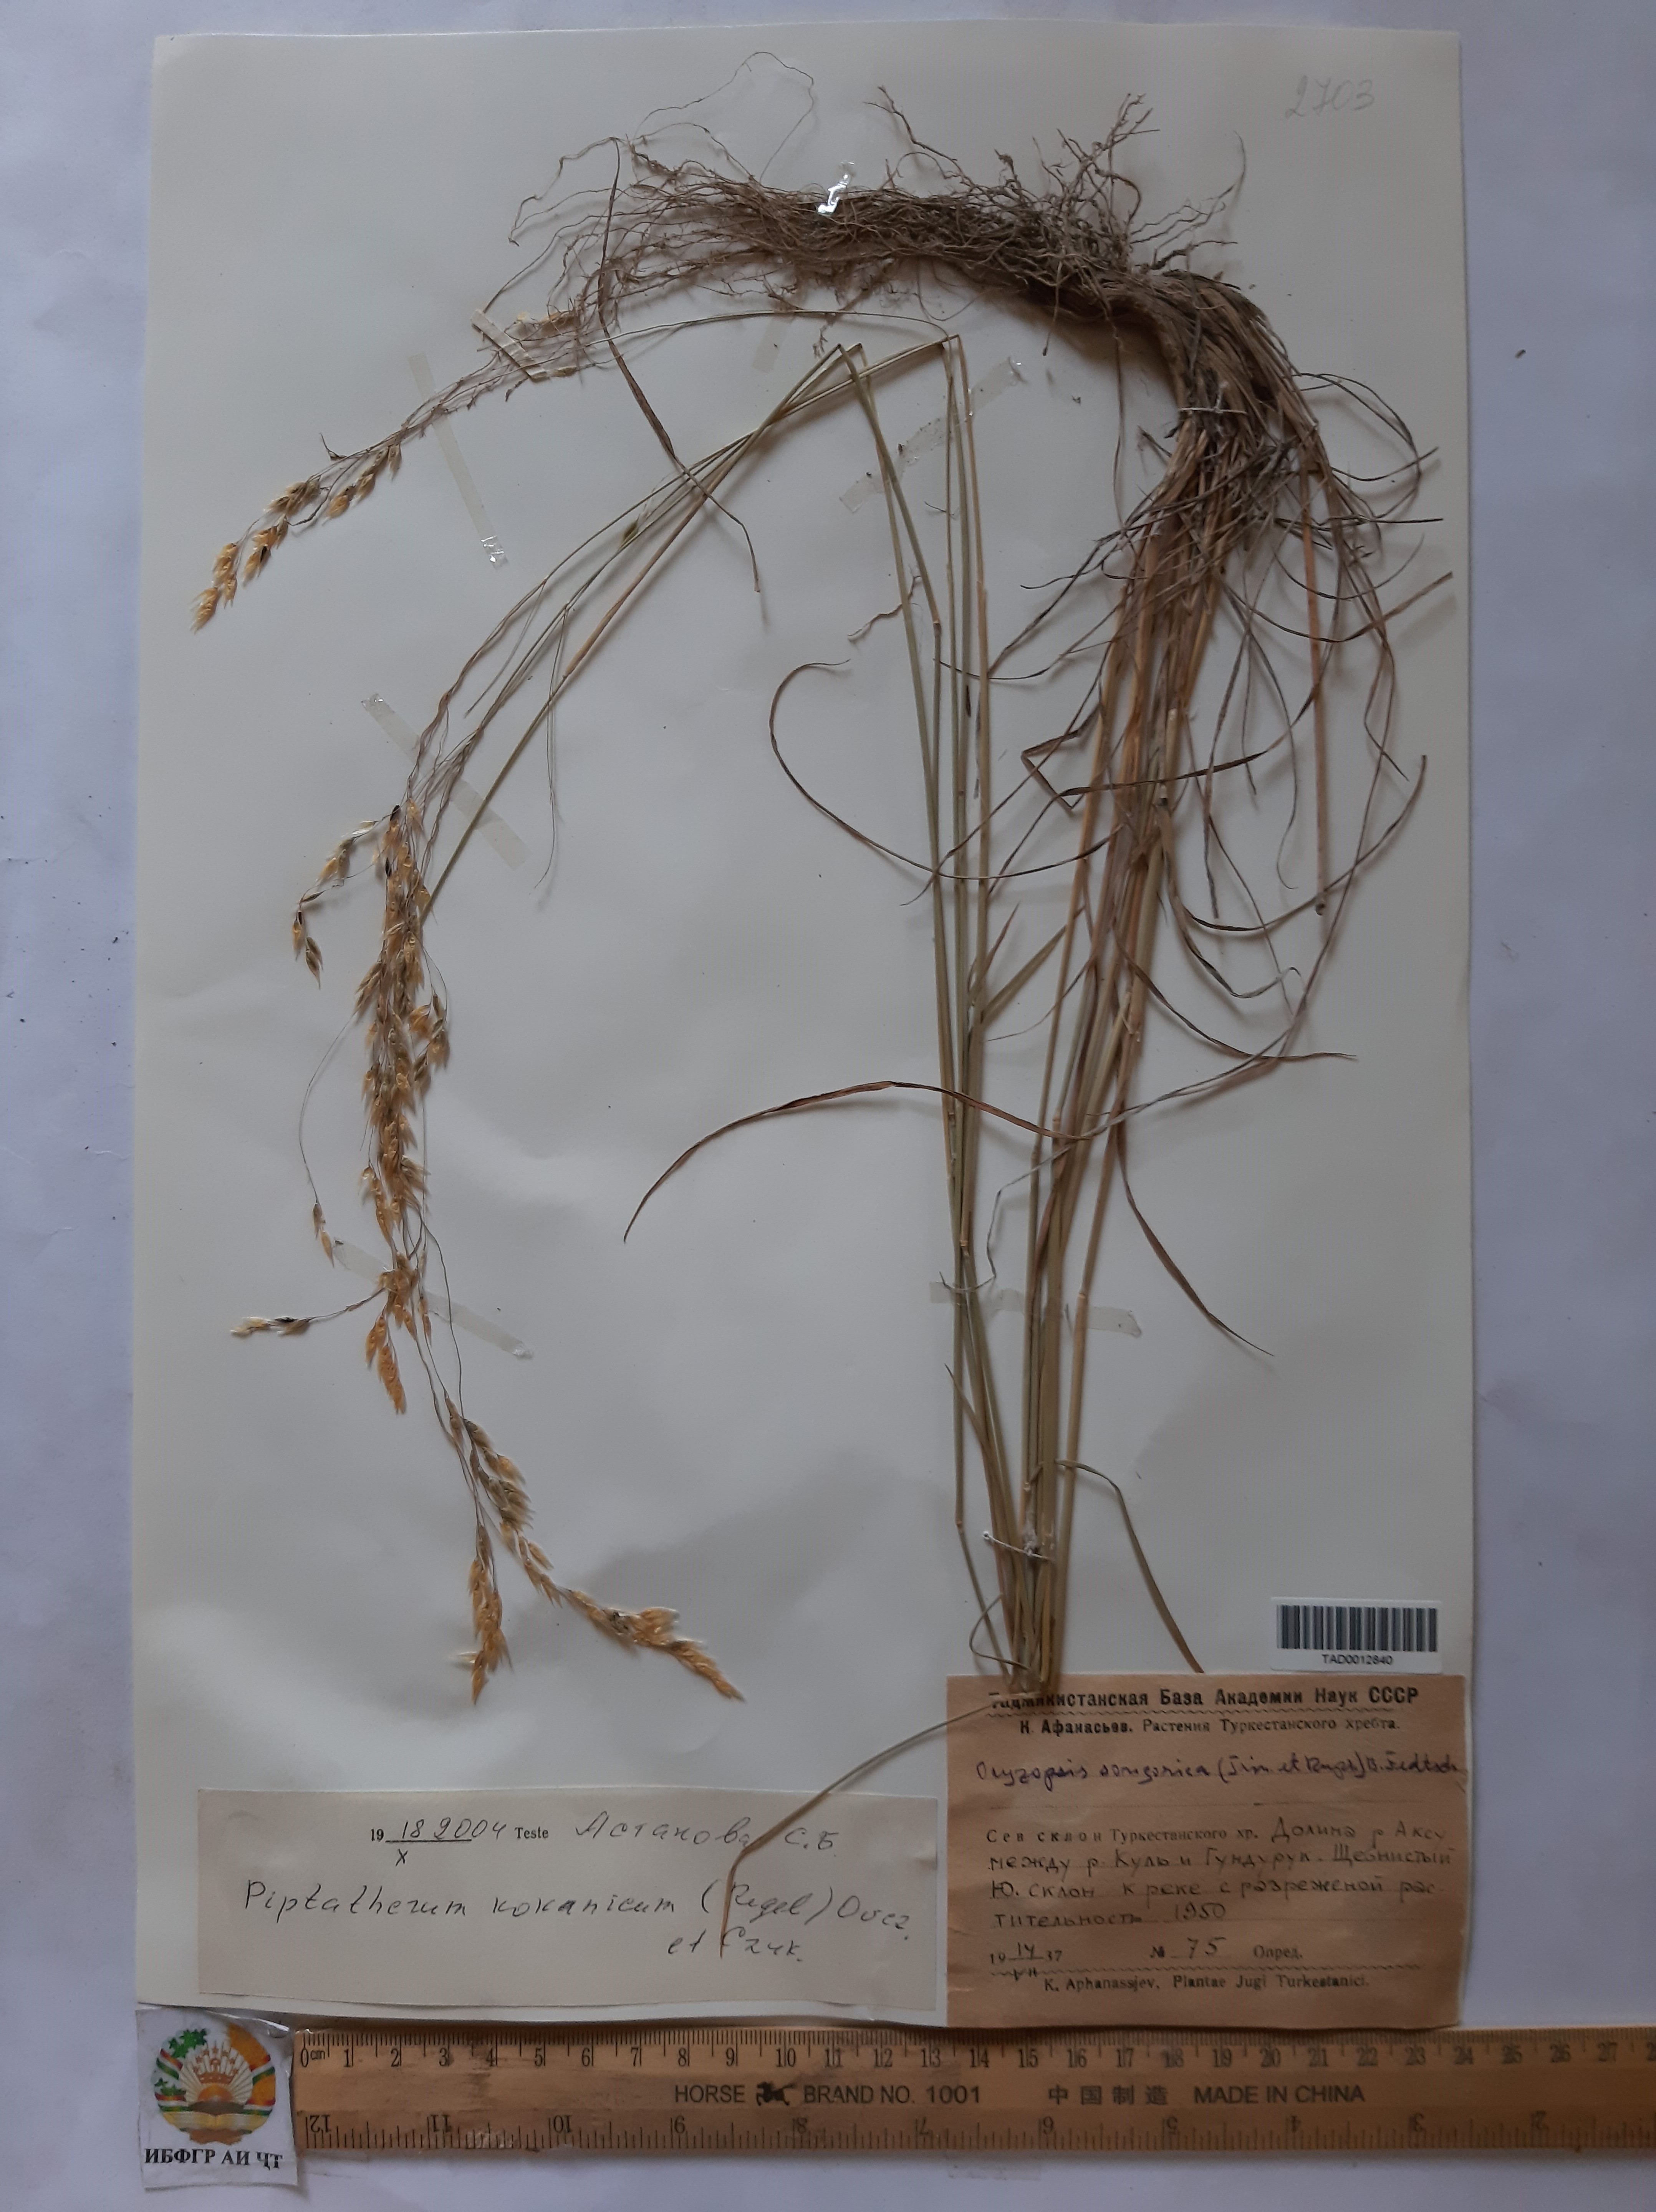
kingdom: Plantae
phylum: Tracheophyta
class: Liliopsida
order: Poales
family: Poaceae
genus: Piptatherum
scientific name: Piptatherum songaricum
